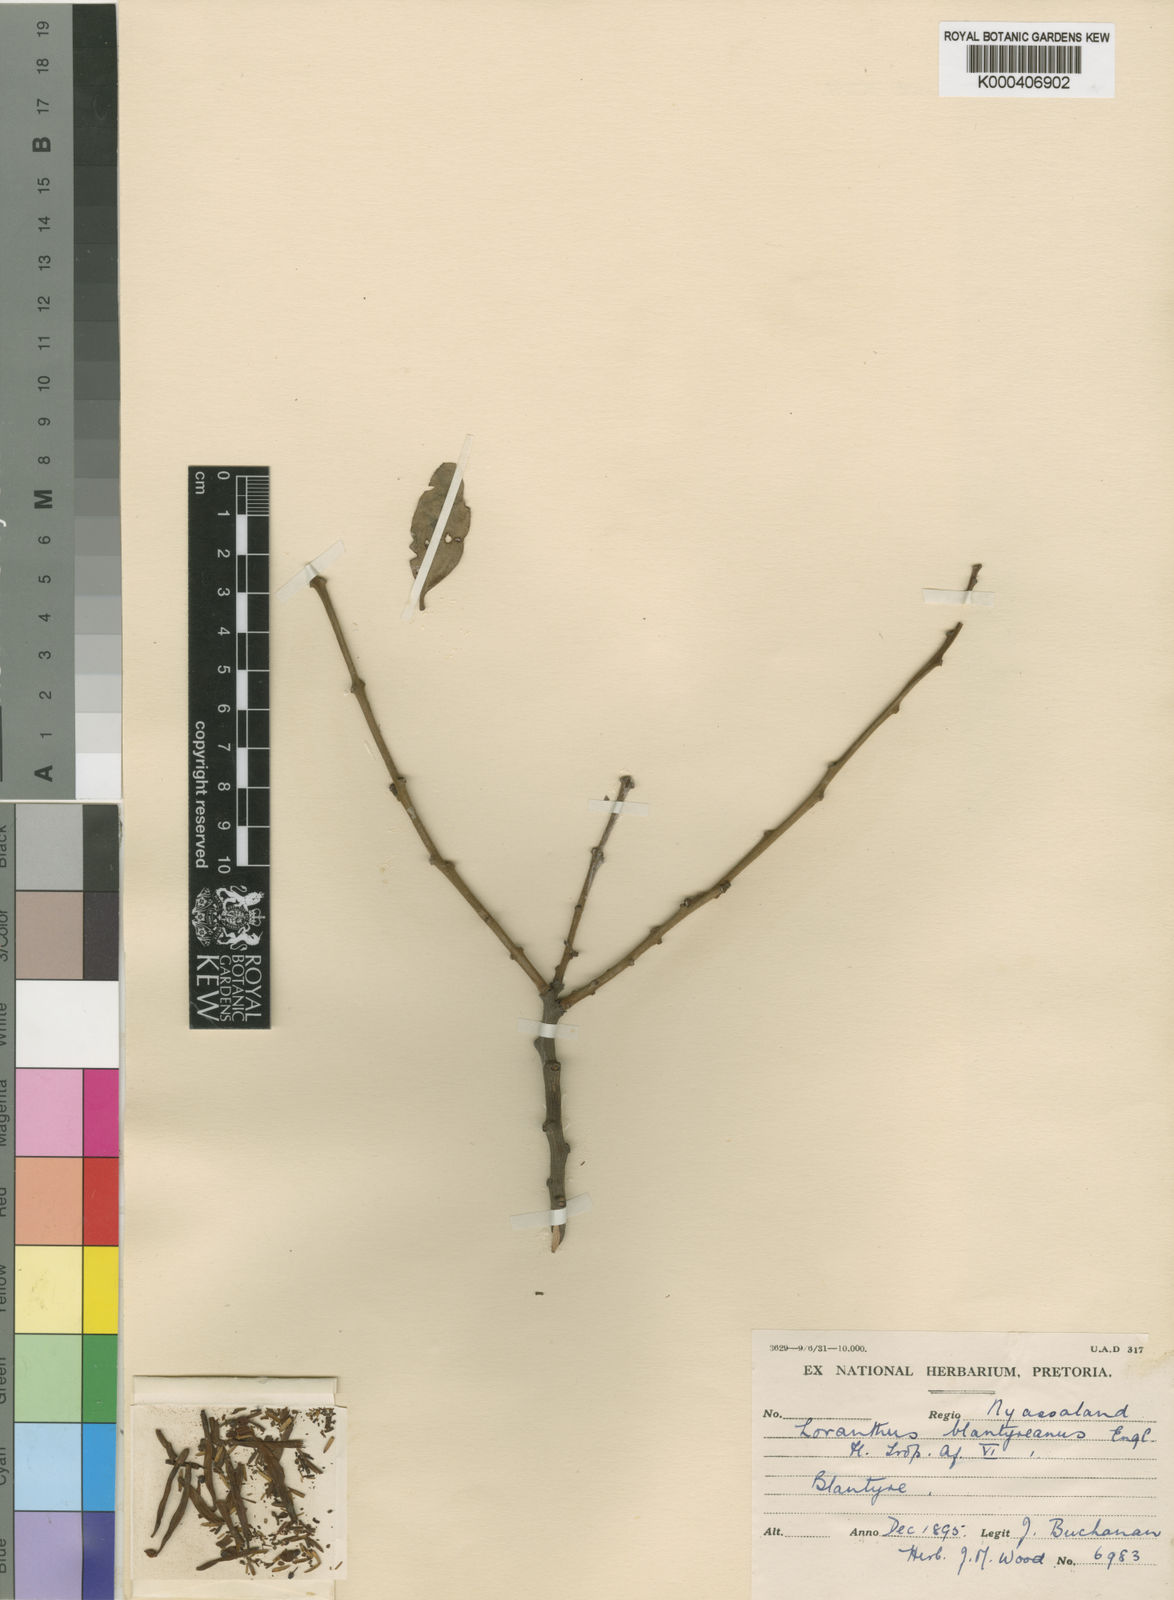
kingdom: Plantae
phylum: Tracheophyta
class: Magnoliopsida
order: Santalales
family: Loranthaceae
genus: Agelanthus
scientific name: Agelanthus pungu
